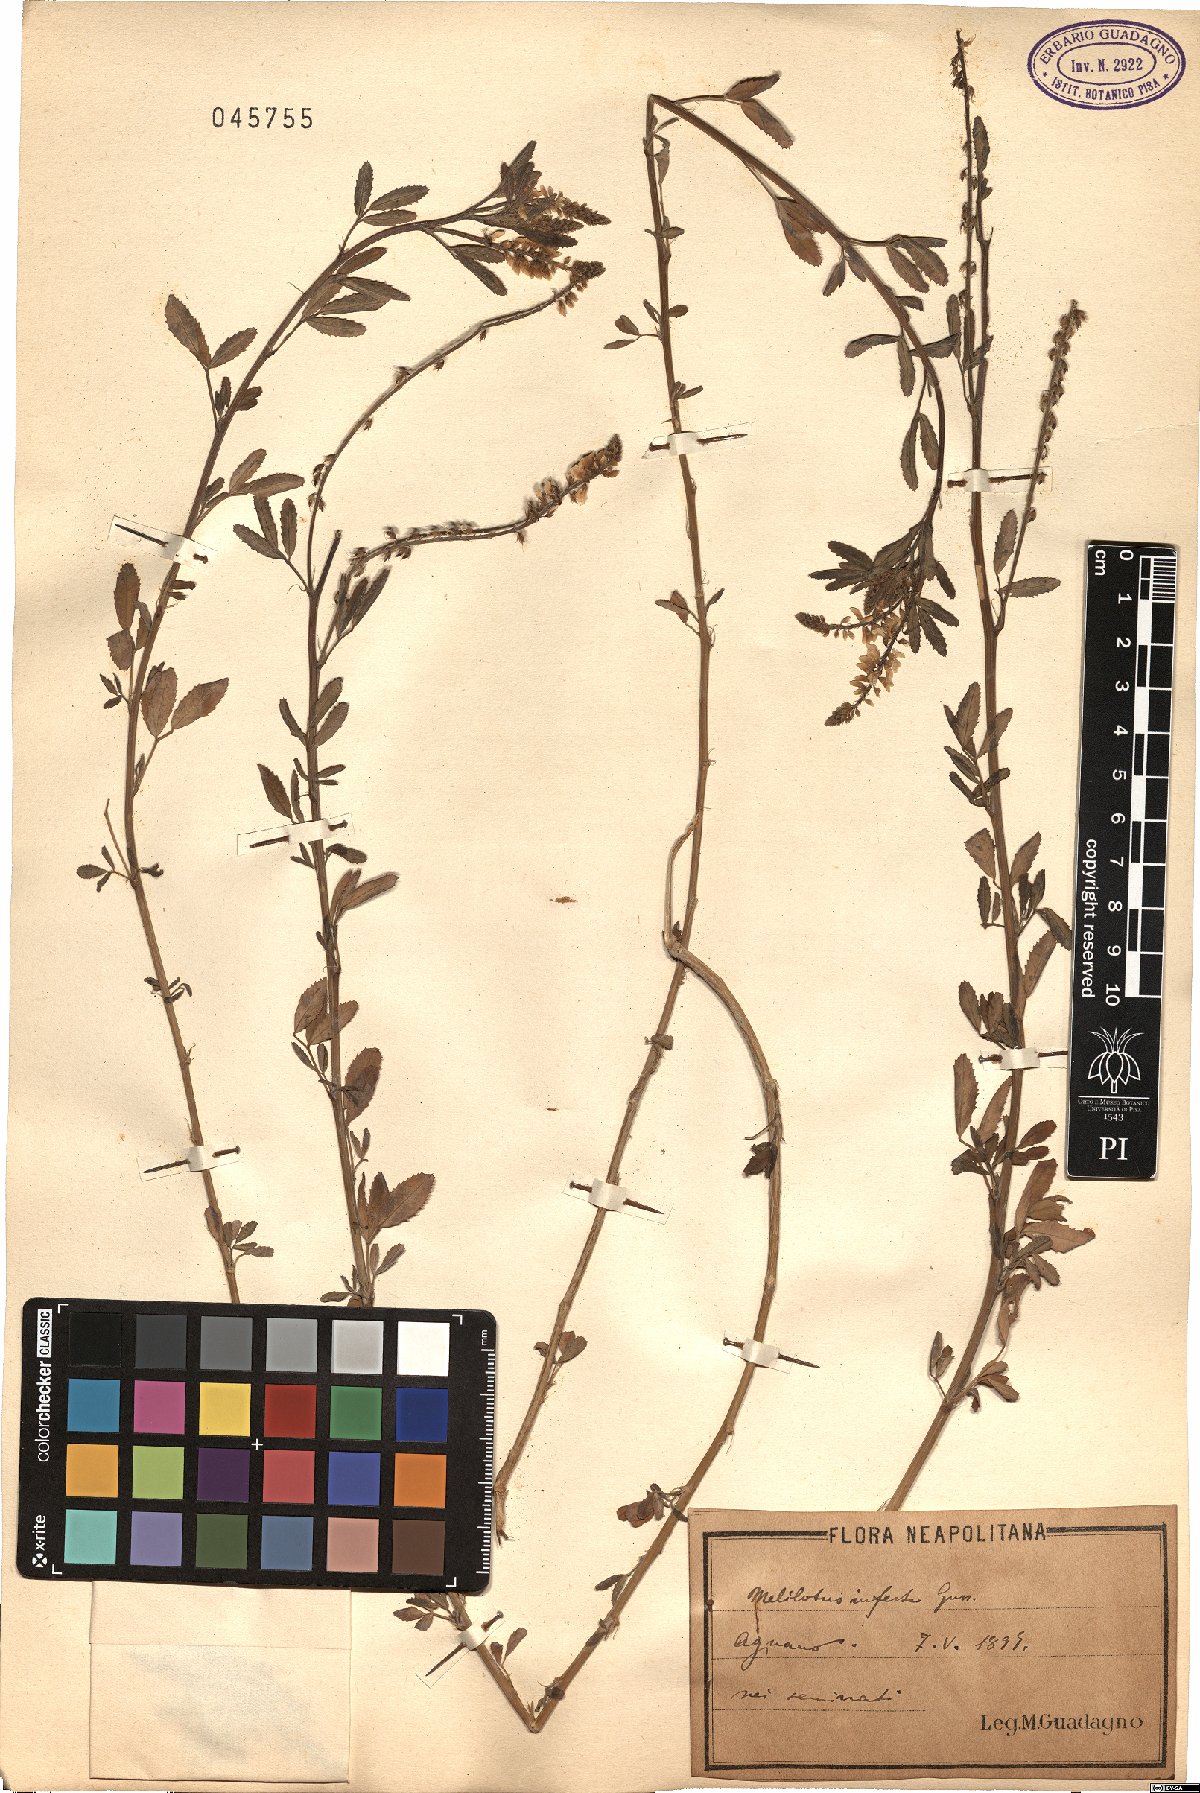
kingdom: Plantae
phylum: Tracheophyta
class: Magnoliopsida
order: Fabales
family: Fabaceae
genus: Melilotus
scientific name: Melilotus infestus
